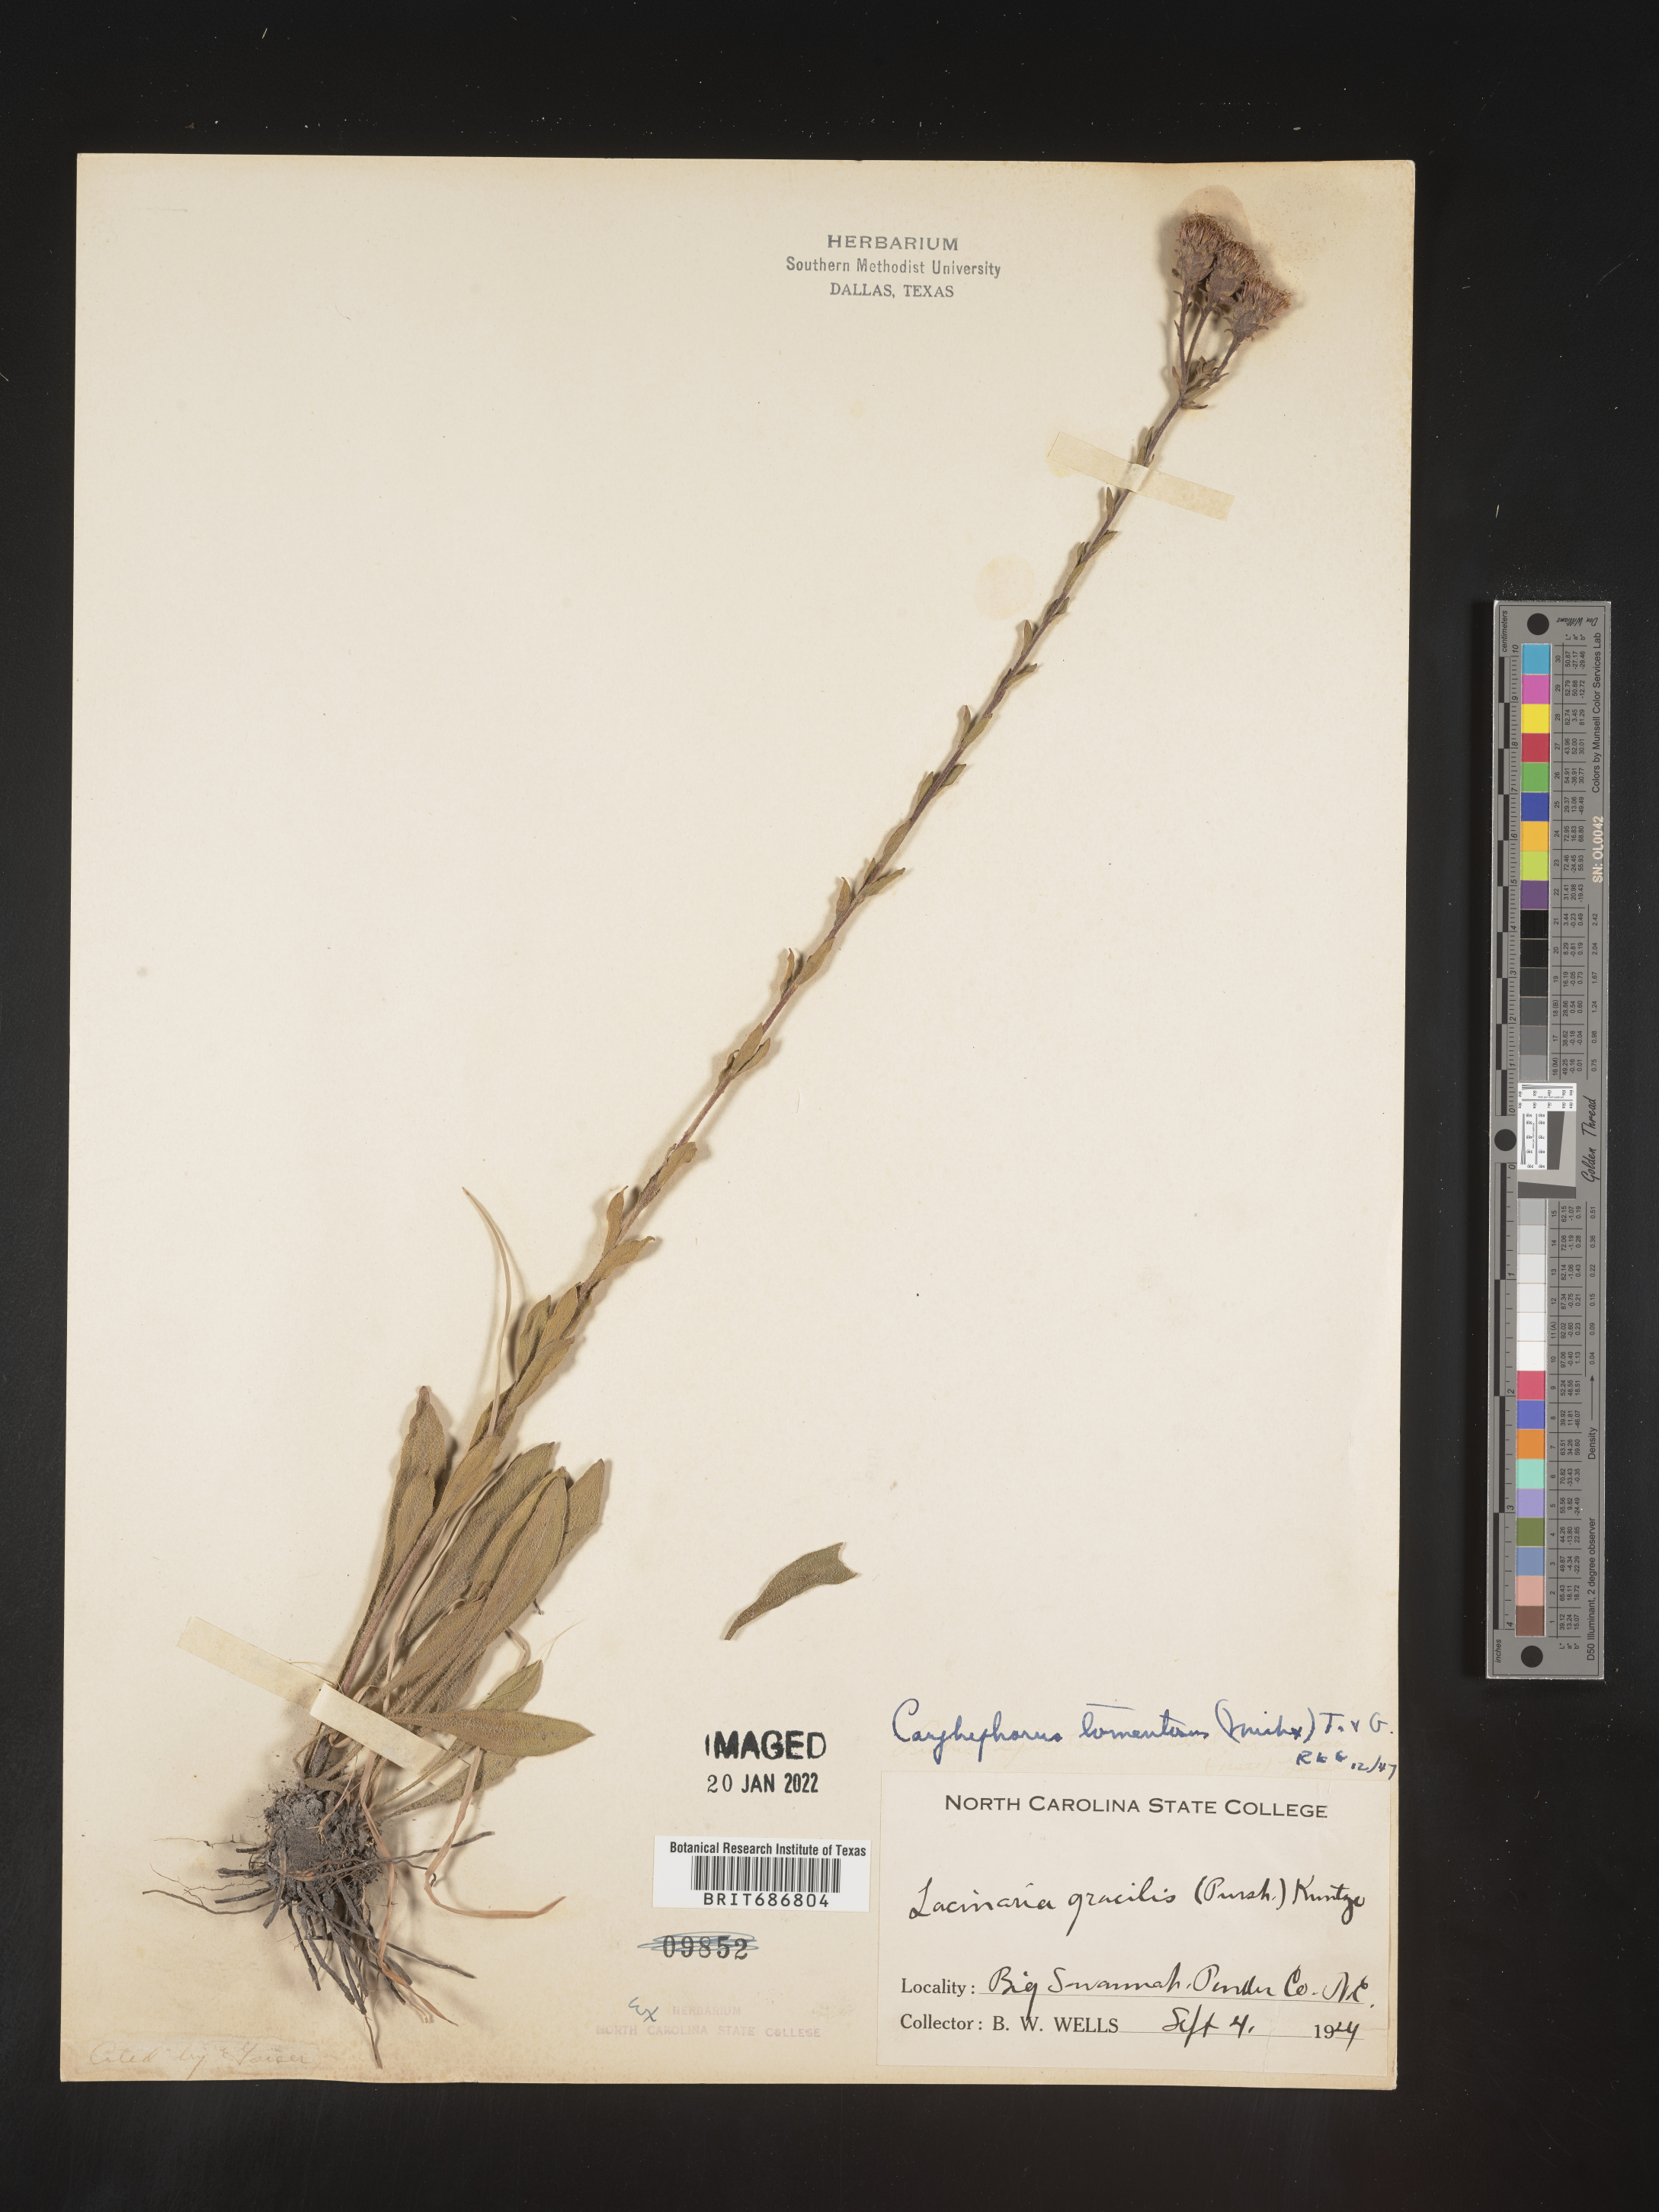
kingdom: Plantae
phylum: Tracheophyta
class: Magnoliopsida
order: Asterales
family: Asteraceae
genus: Carphephorus
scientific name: Carphephorus tomentosus
